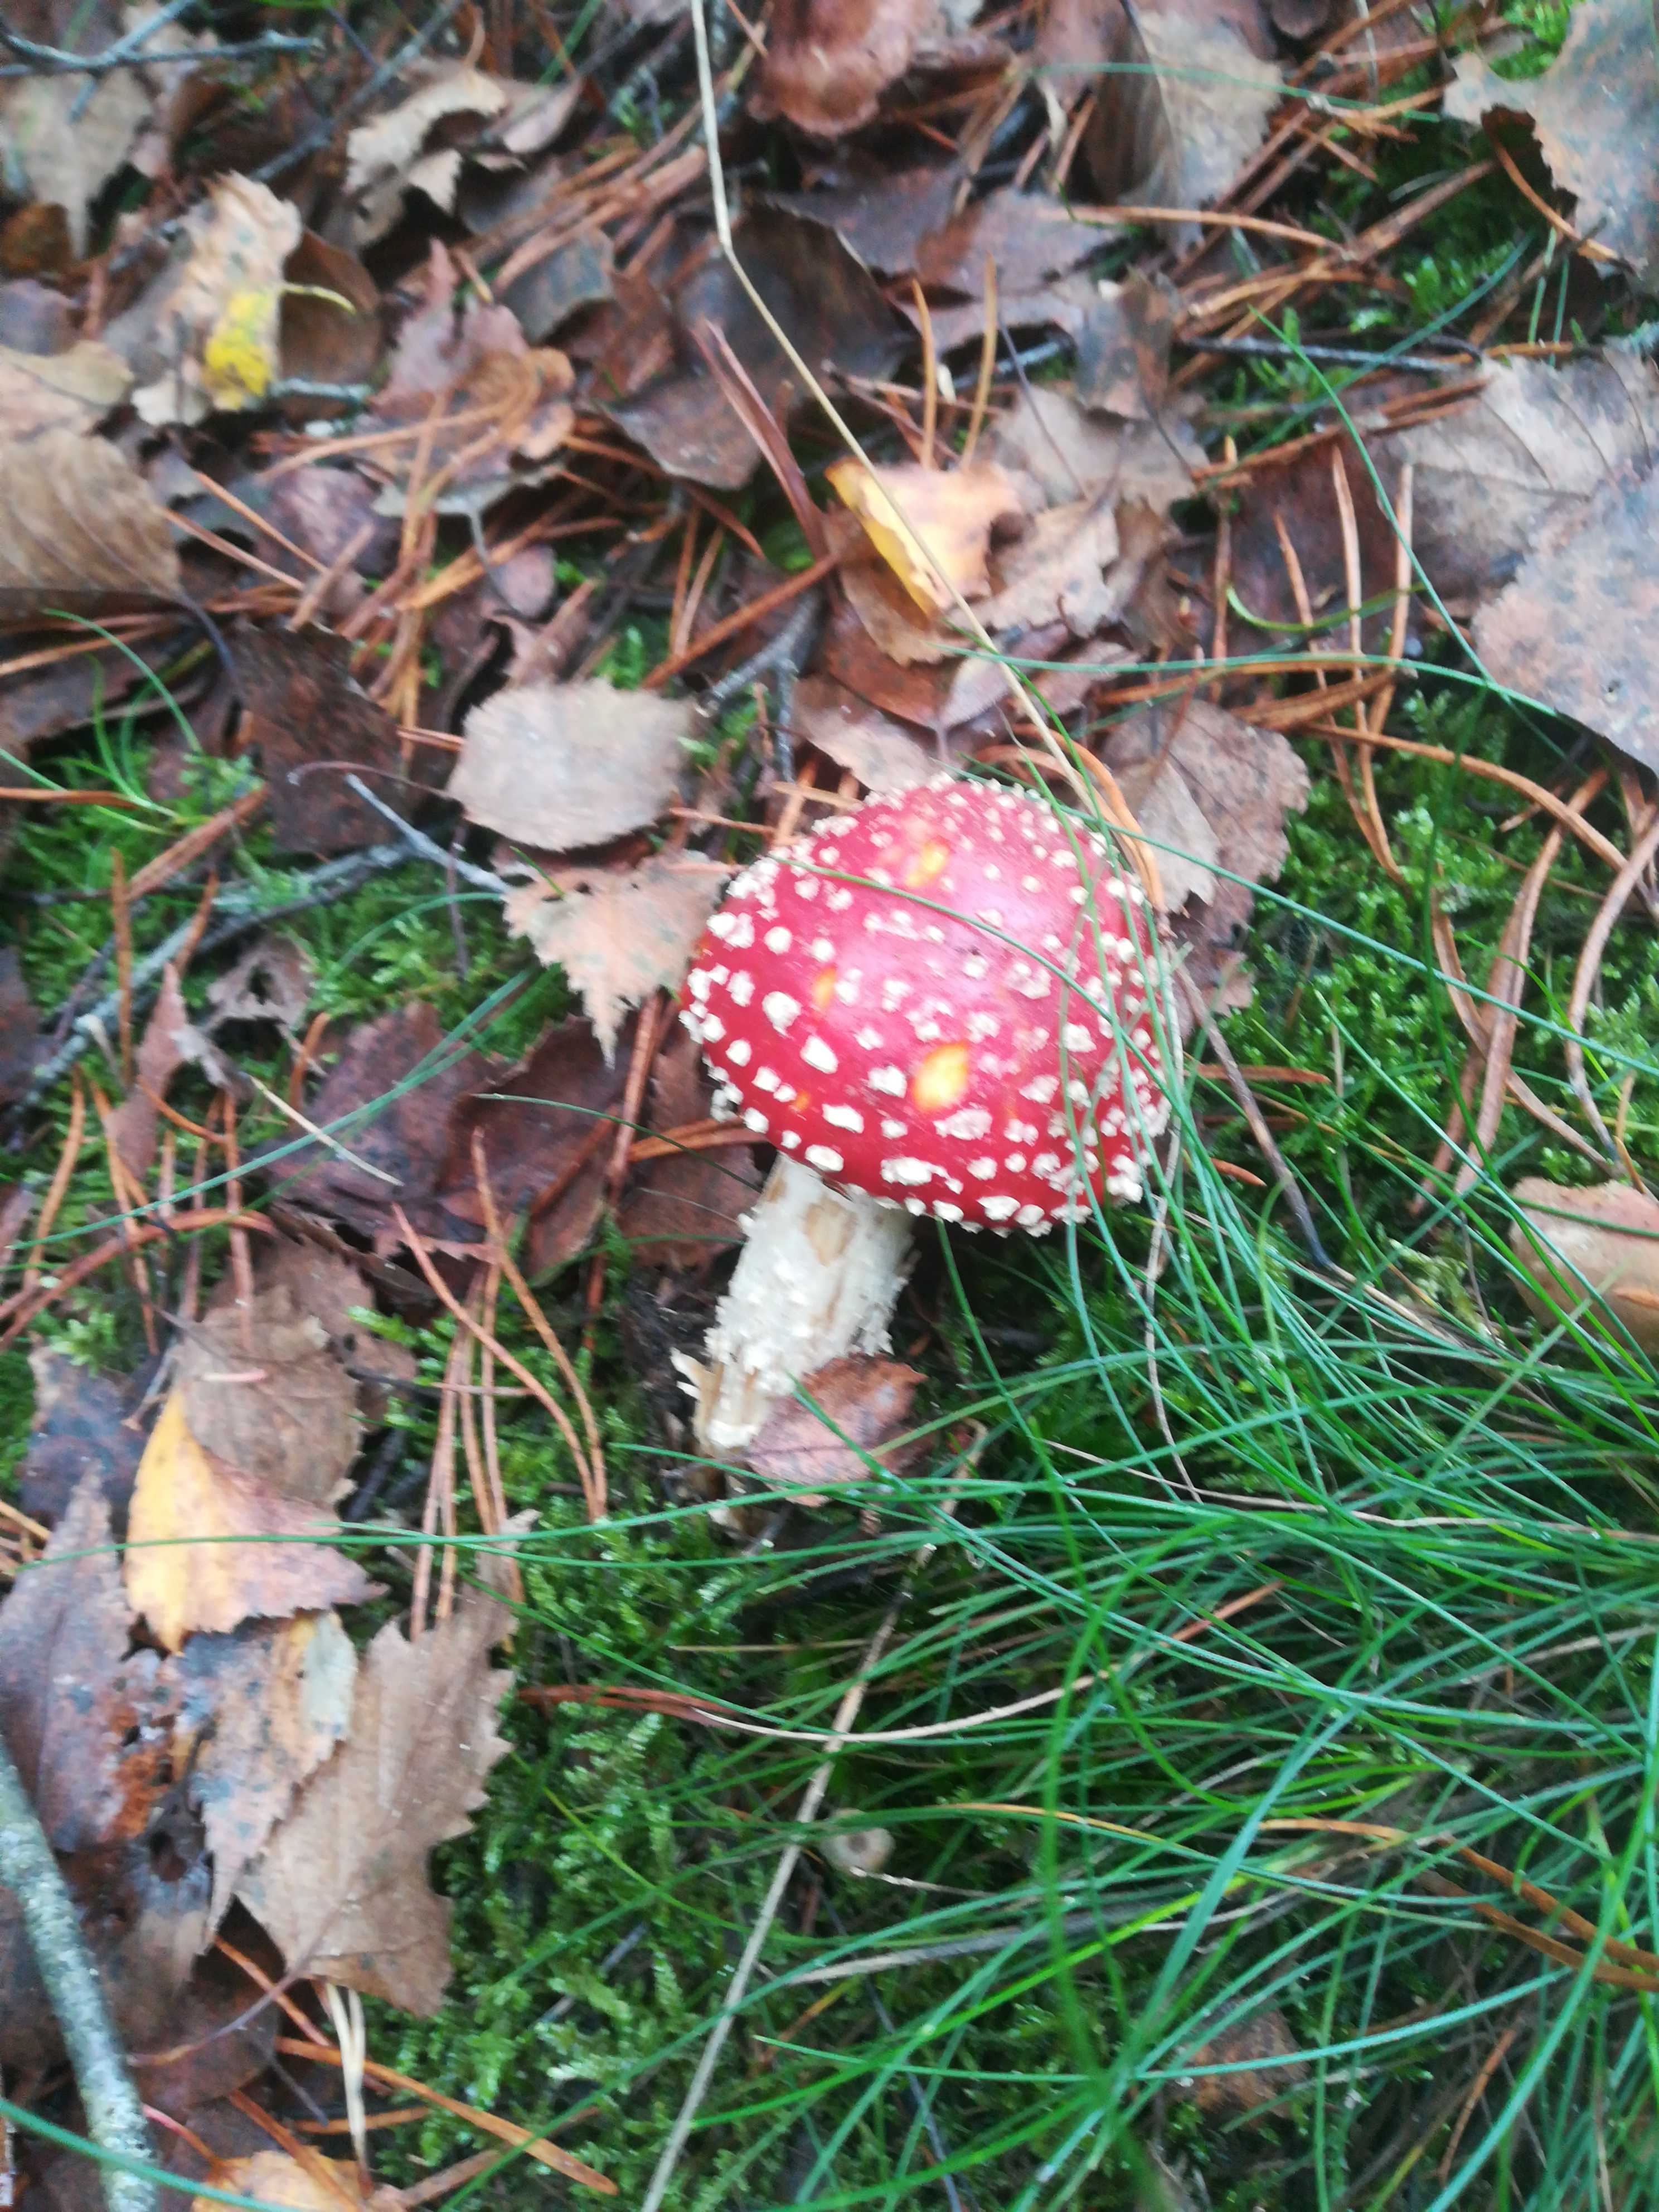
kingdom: Fungi
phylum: Basidiomycota
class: Agaricomycetes
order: Agaricales
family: Amanitaceae
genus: Amanita
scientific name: Amanita muscaria
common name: rød fluesvamp
